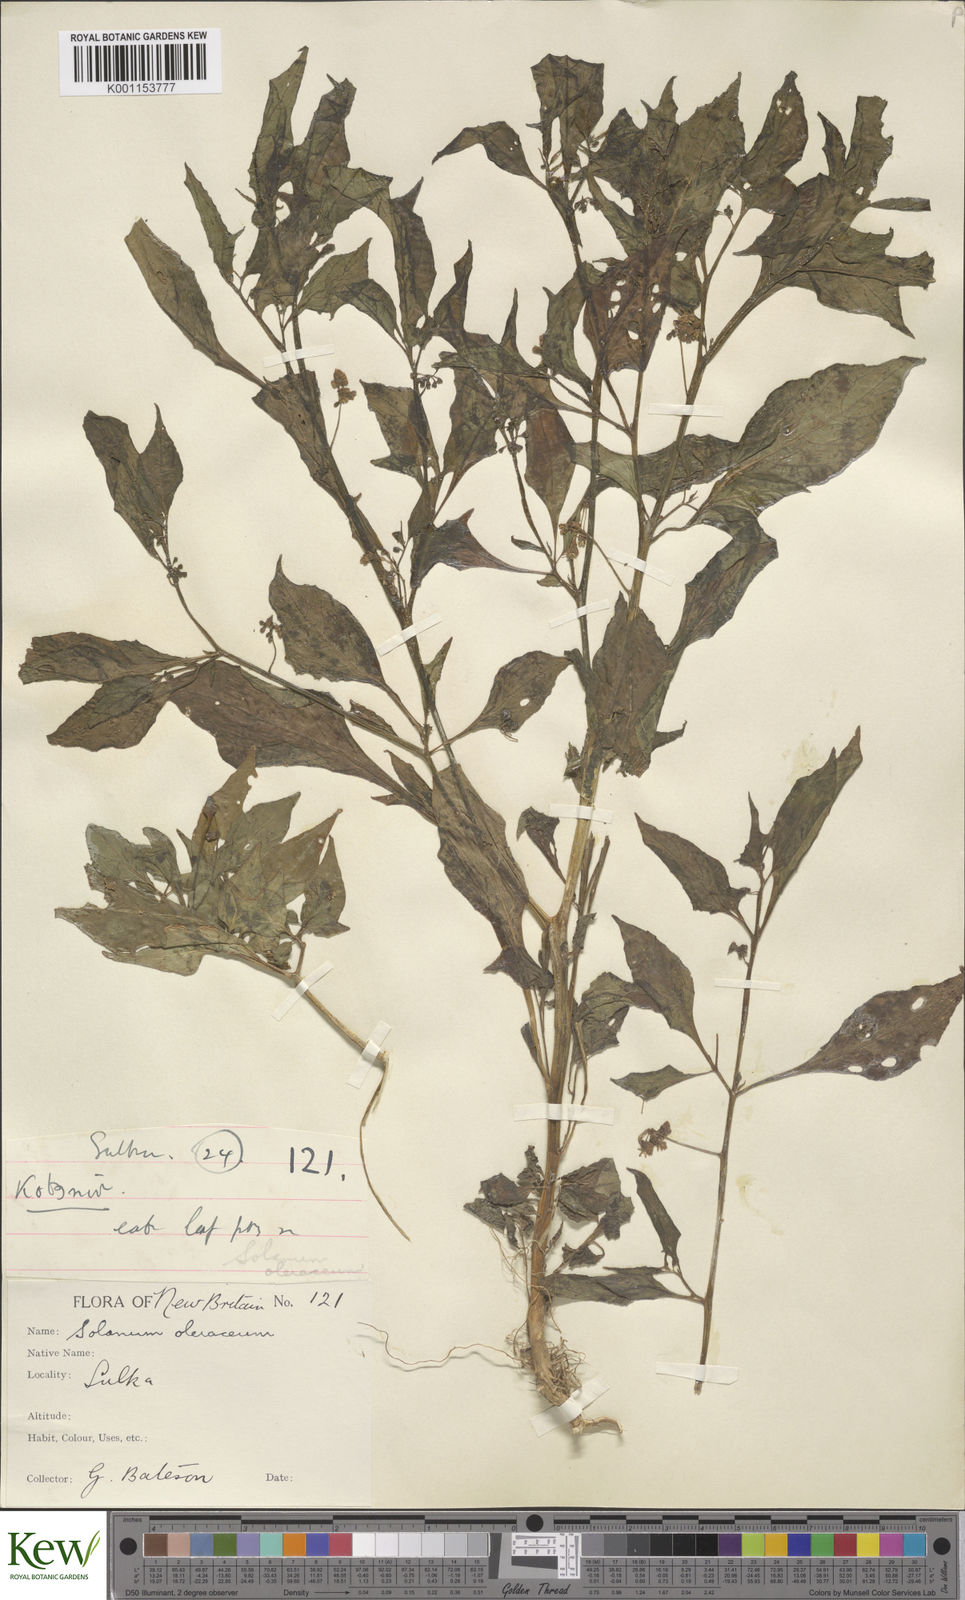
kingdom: Plantae
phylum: Tracheophyta
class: Magnoliopsida
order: Solanales
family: Solanaceae
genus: Solanum
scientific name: Solanum americanum
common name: American black nightshade
